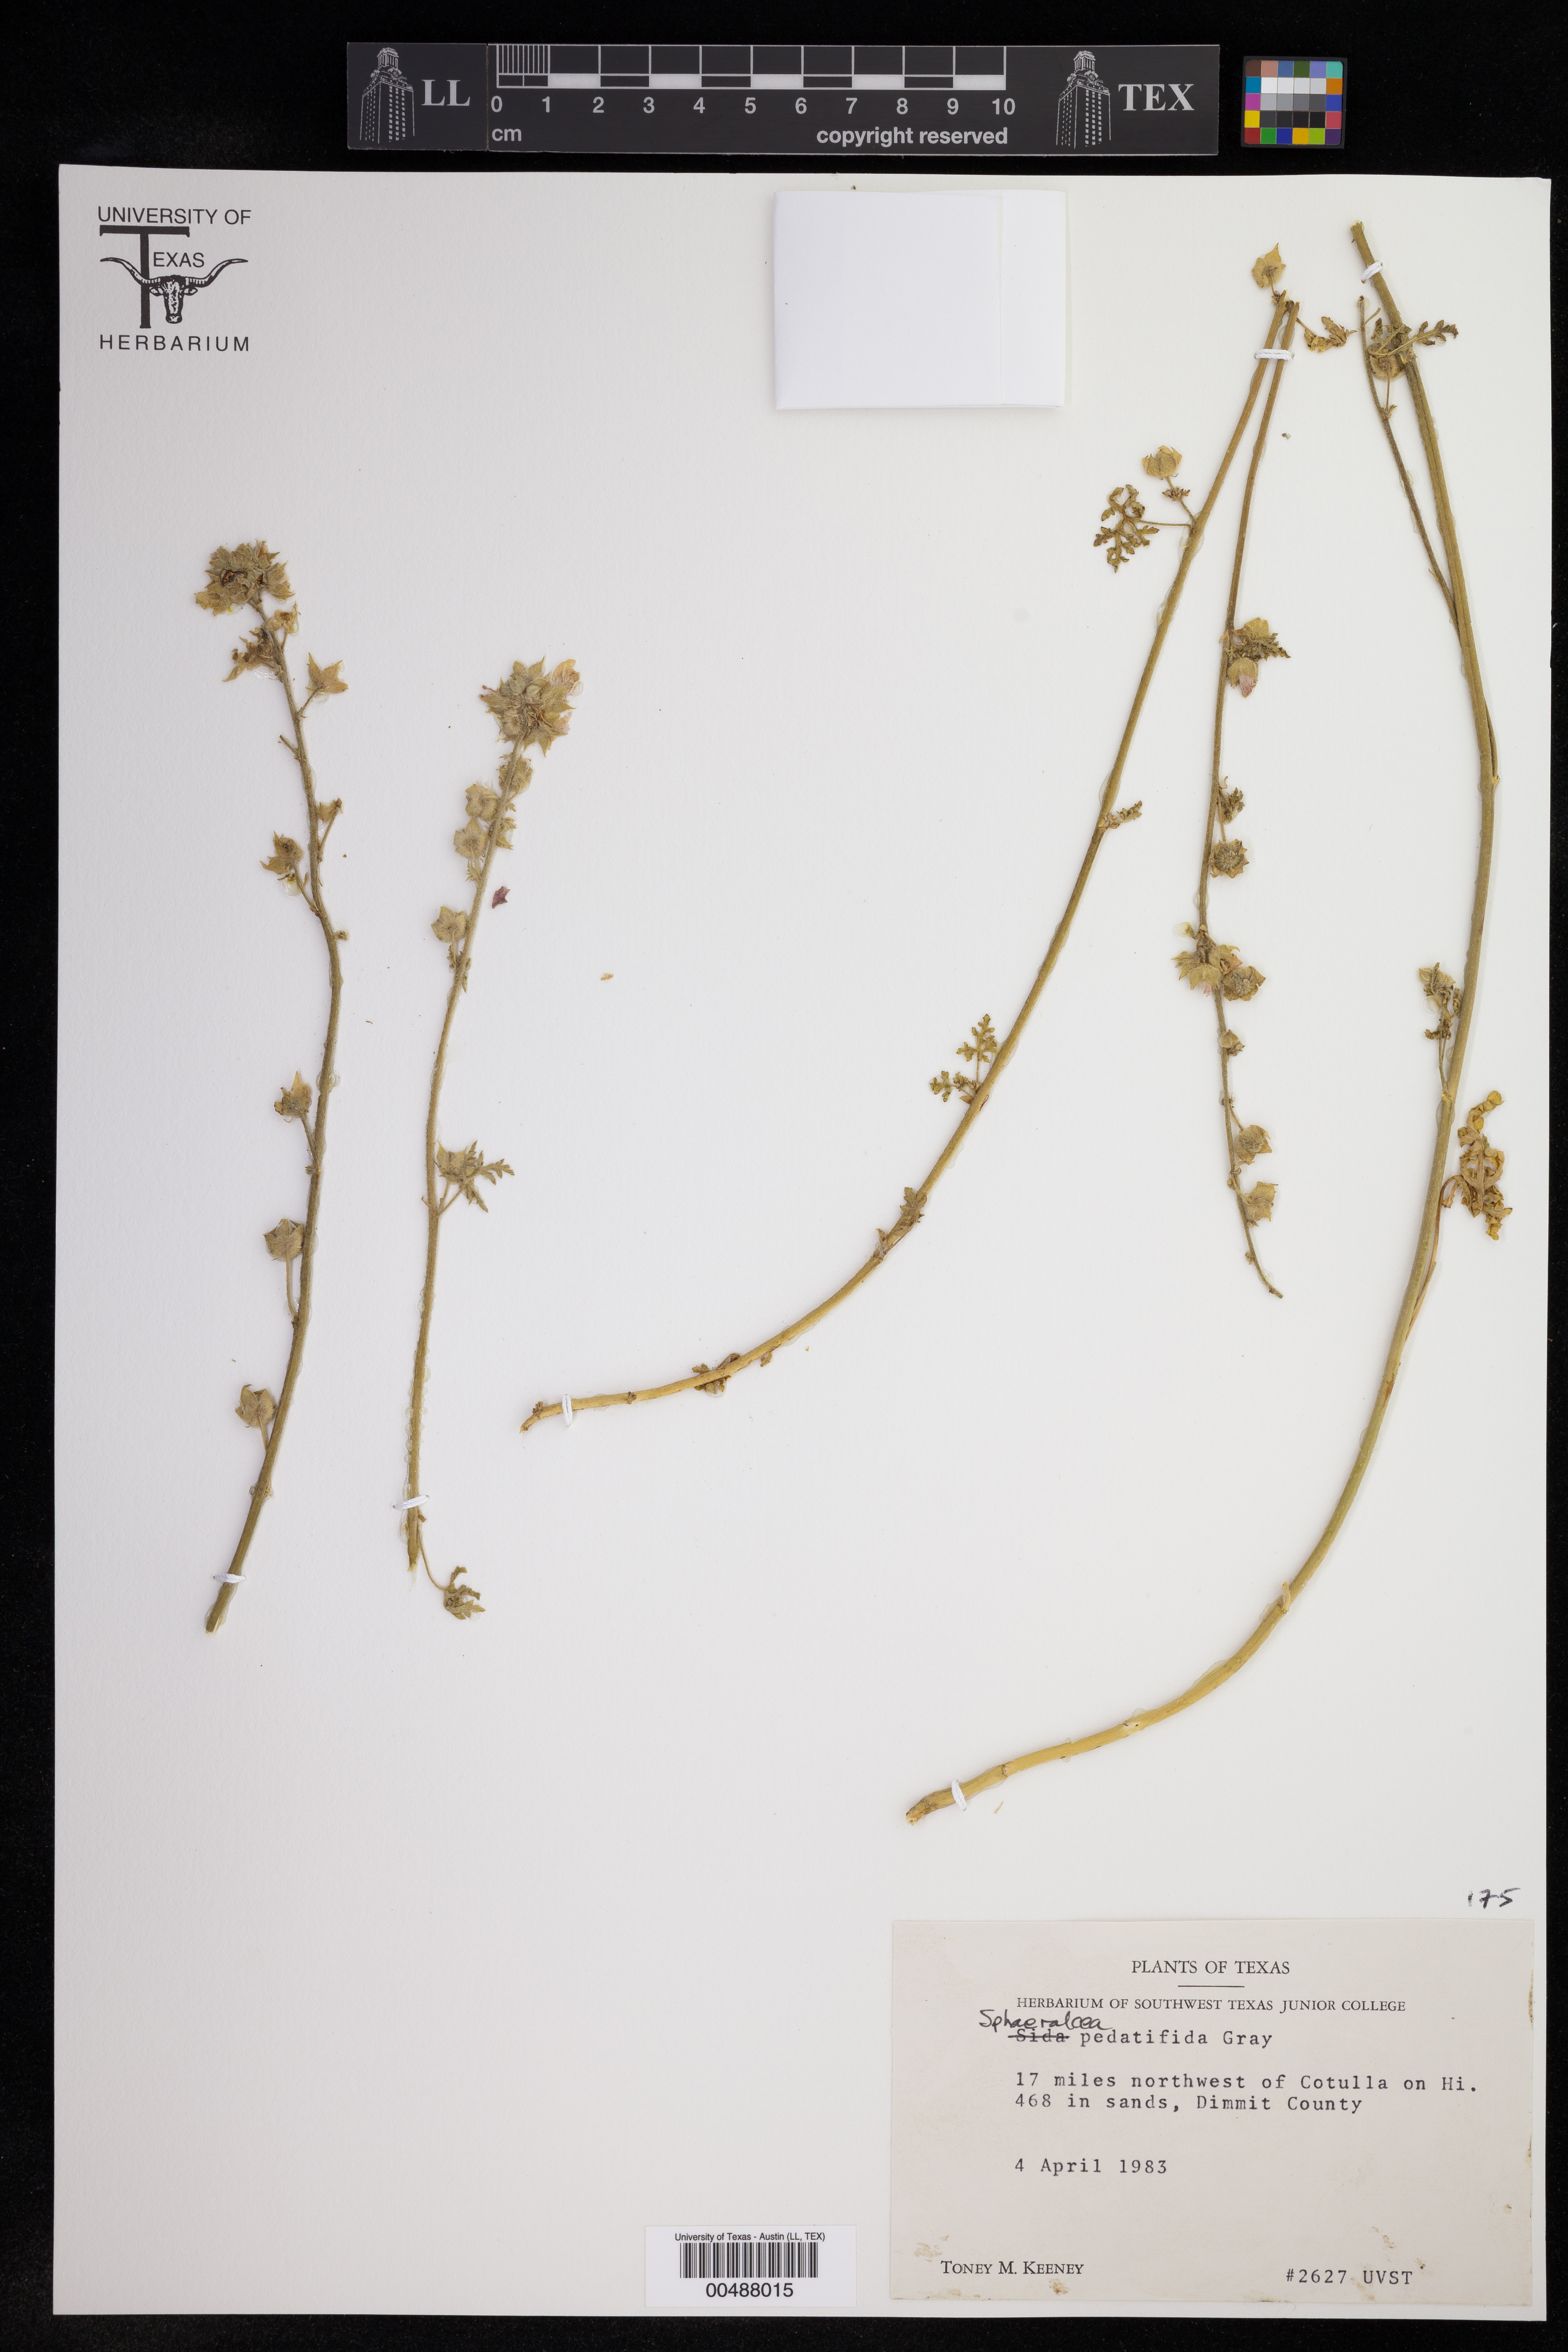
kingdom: Plantae
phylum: Tracheophyta
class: Magnoliopsida
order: Malvales
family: Malvaceae
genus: Sphaeralcea
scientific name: Sphaeralcea pedatifida
